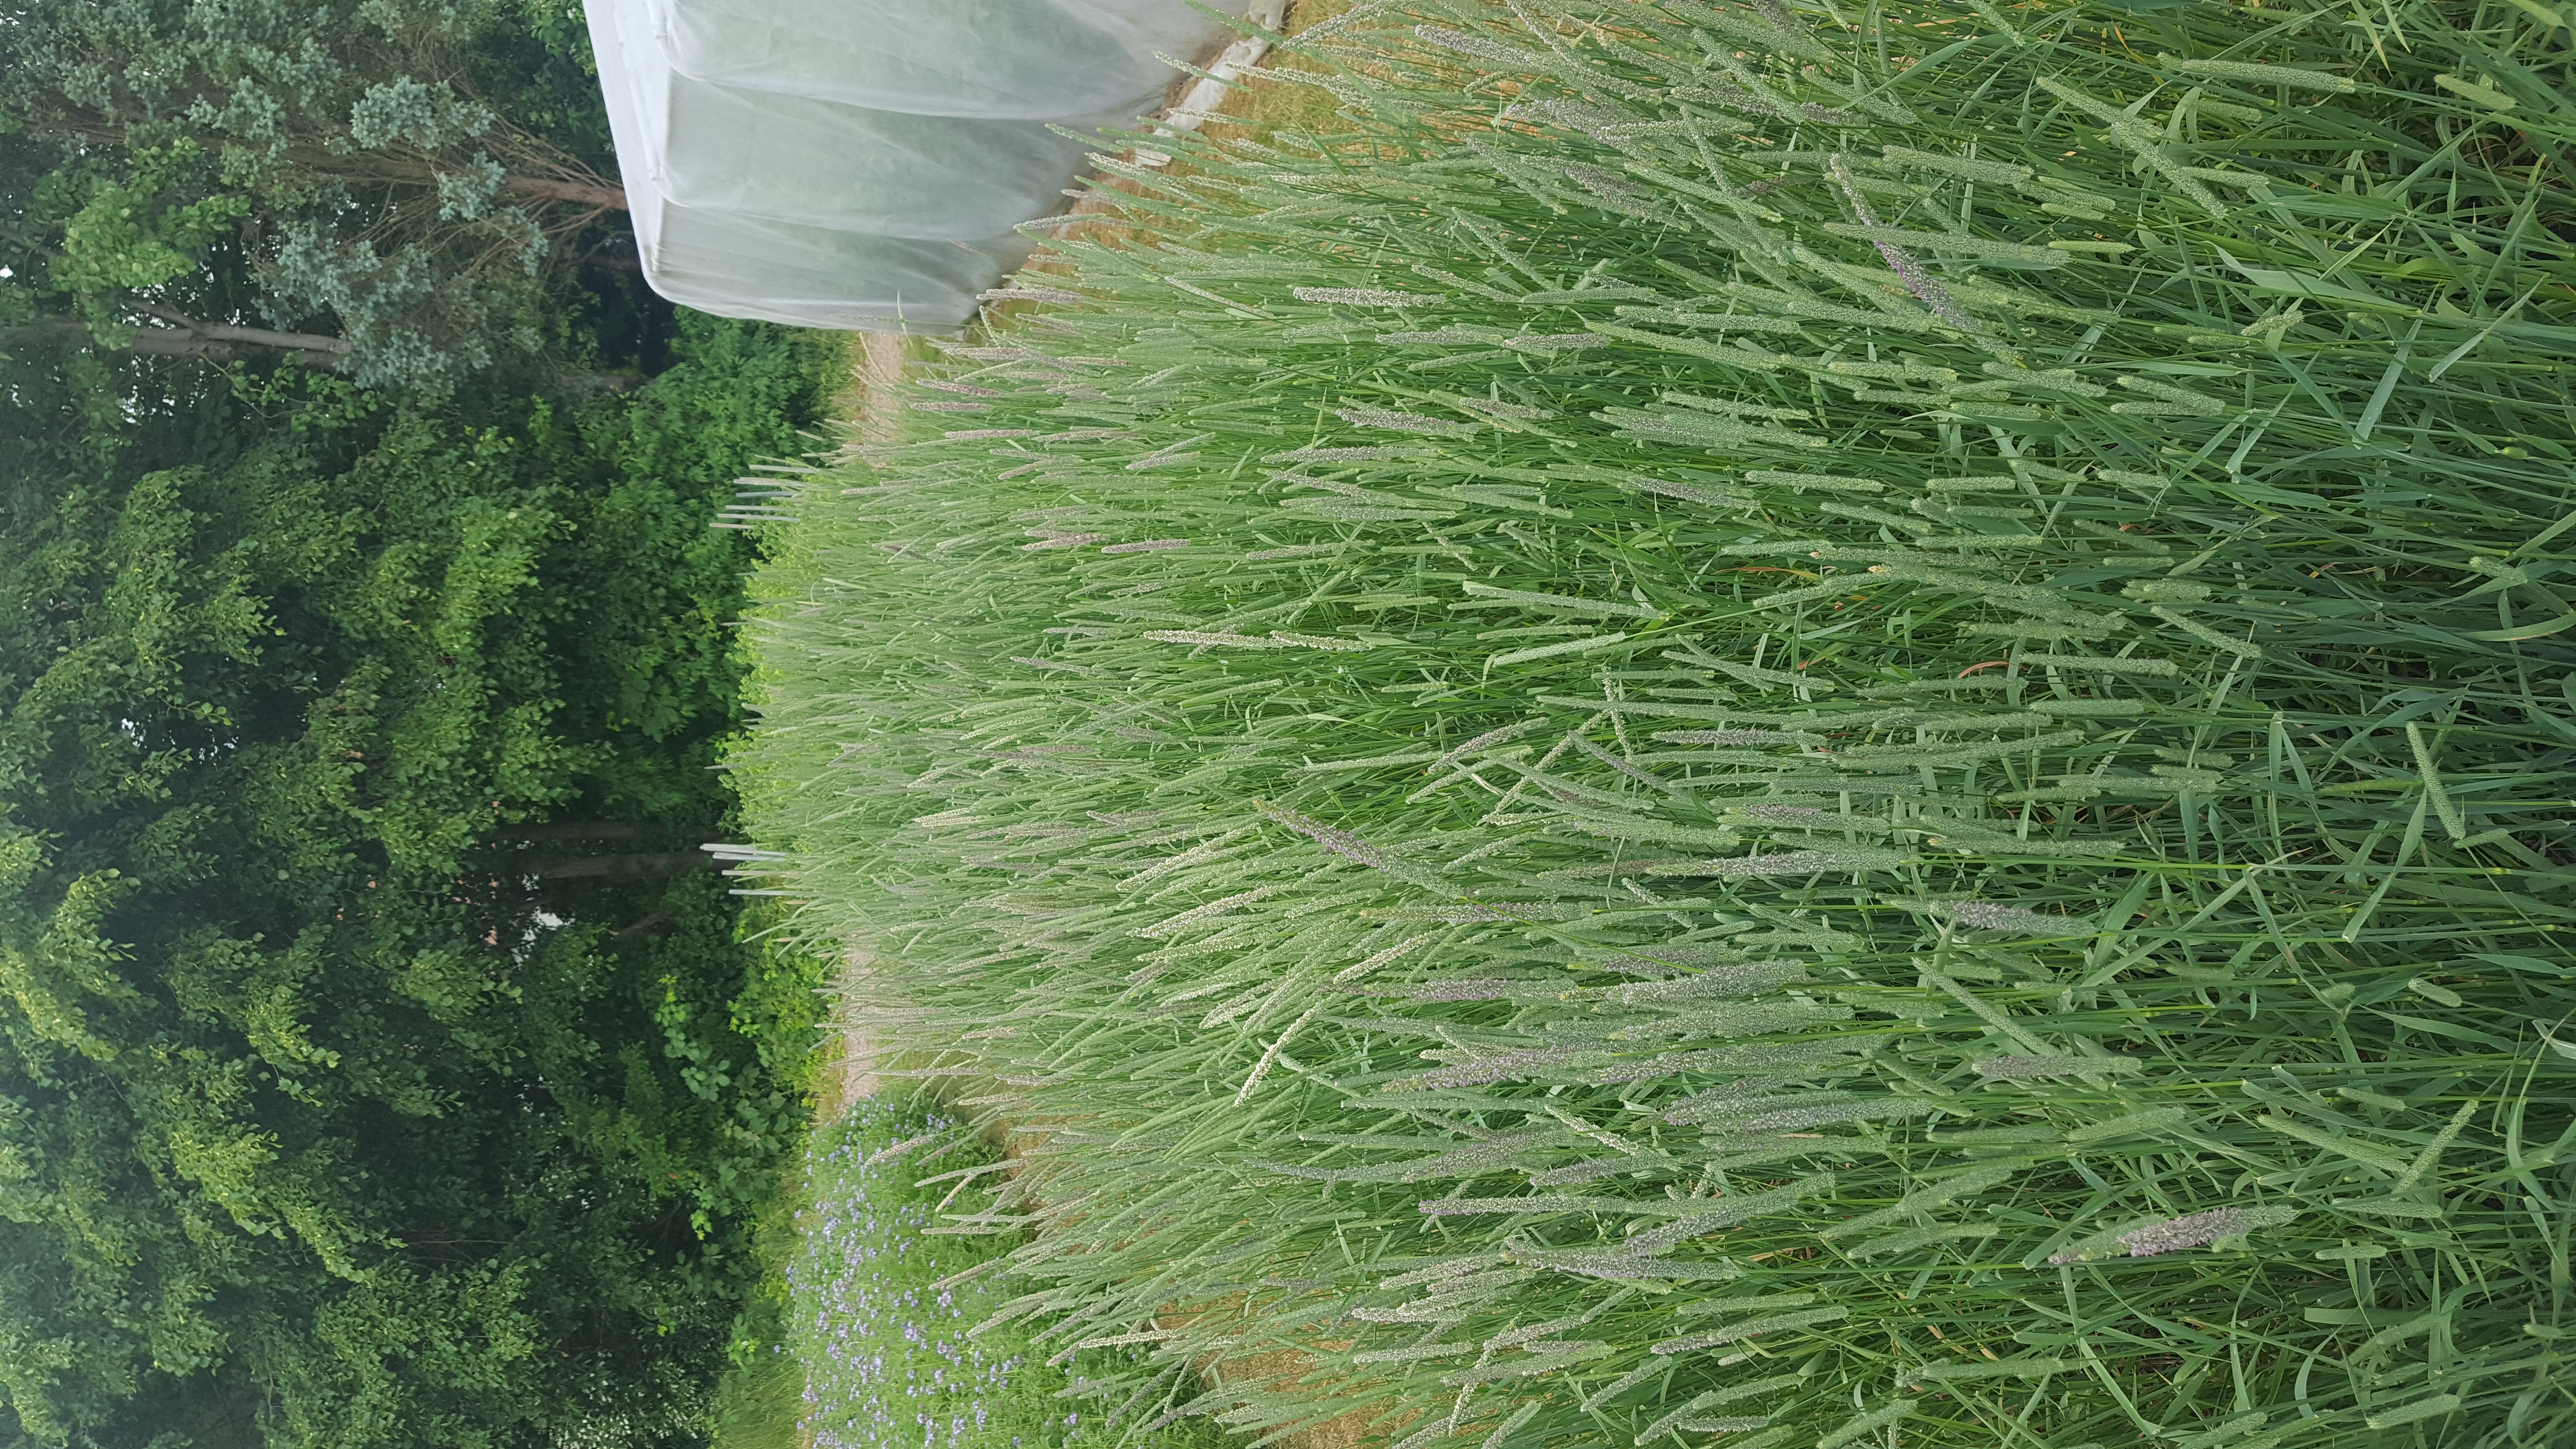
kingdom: Plantae
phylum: Tracheophyta
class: Liliopsida
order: Poales
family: Poaceae
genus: Phleum
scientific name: Phleum pratense
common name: Timothy grass
